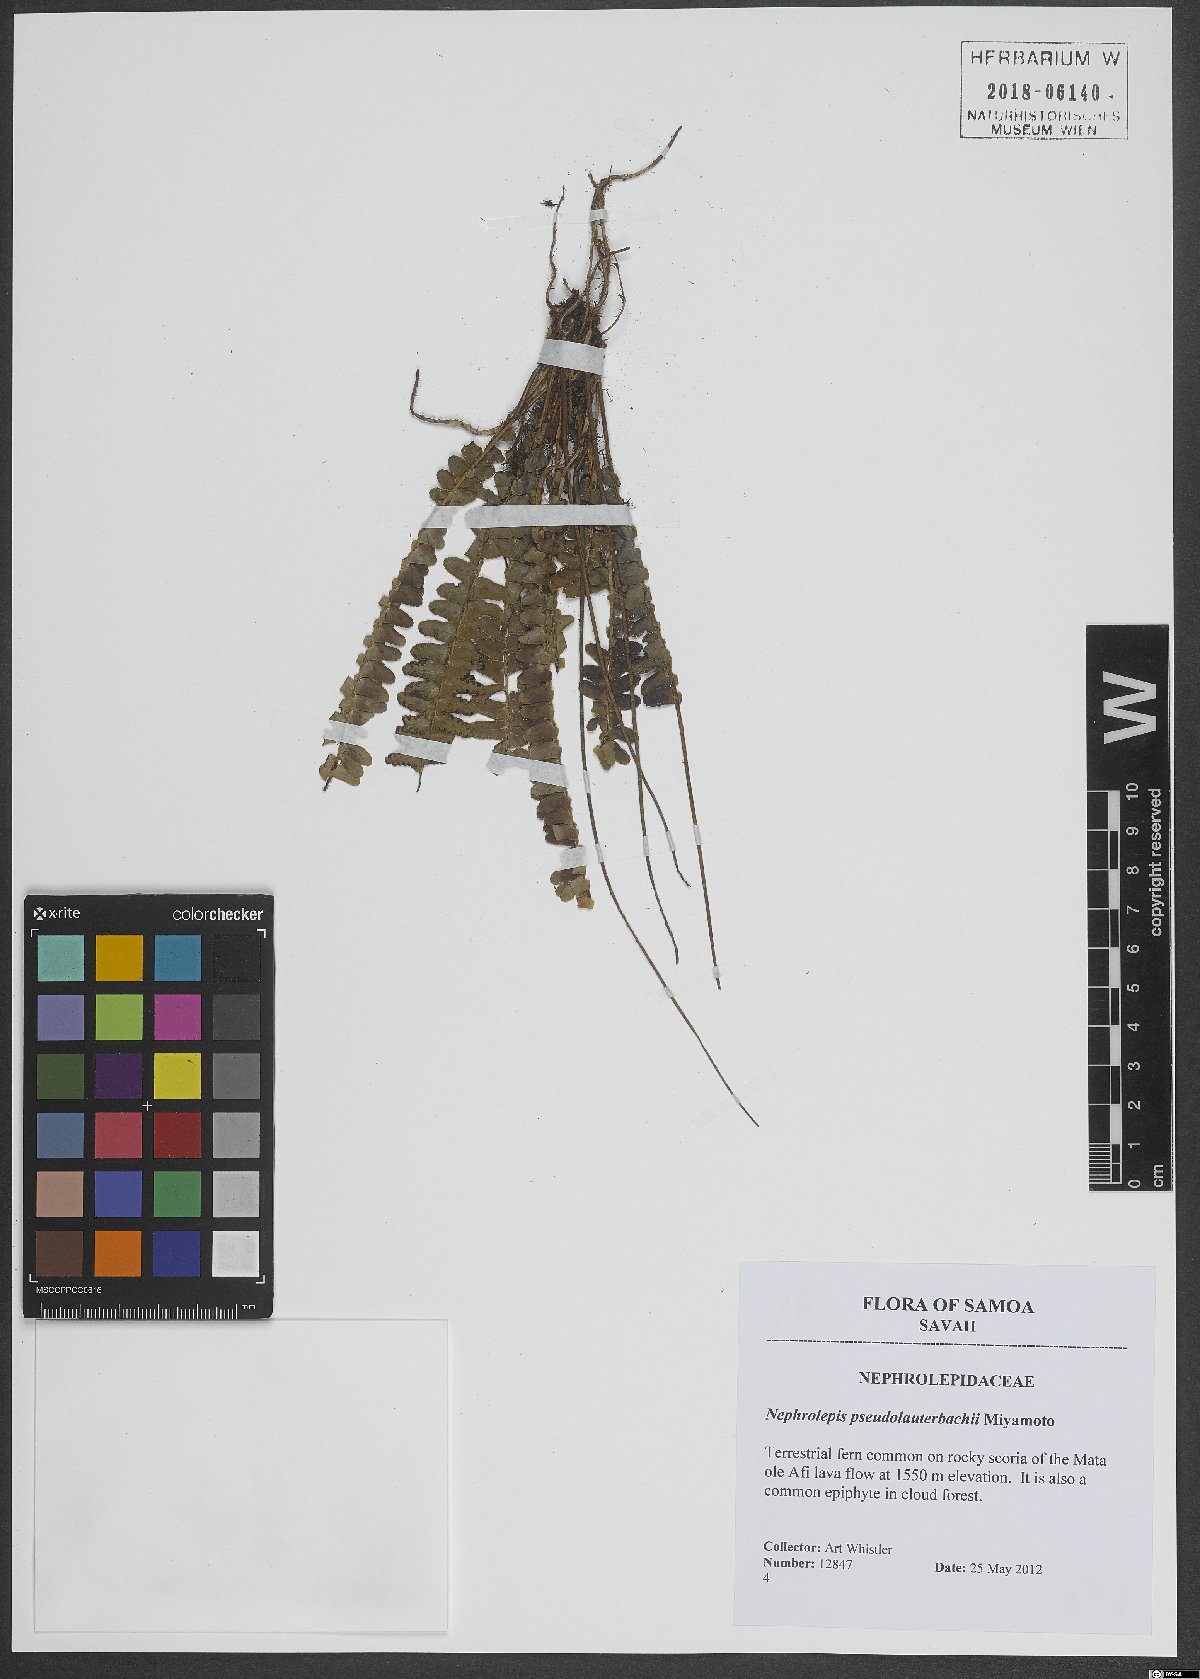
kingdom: Plantae
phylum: Tracheophyta
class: Polypodiopsida
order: Polypodiales
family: Nephrolepidaceae
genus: Nephrolepis
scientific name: Nephrolepis cordifolia
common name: Narrow swordfern
